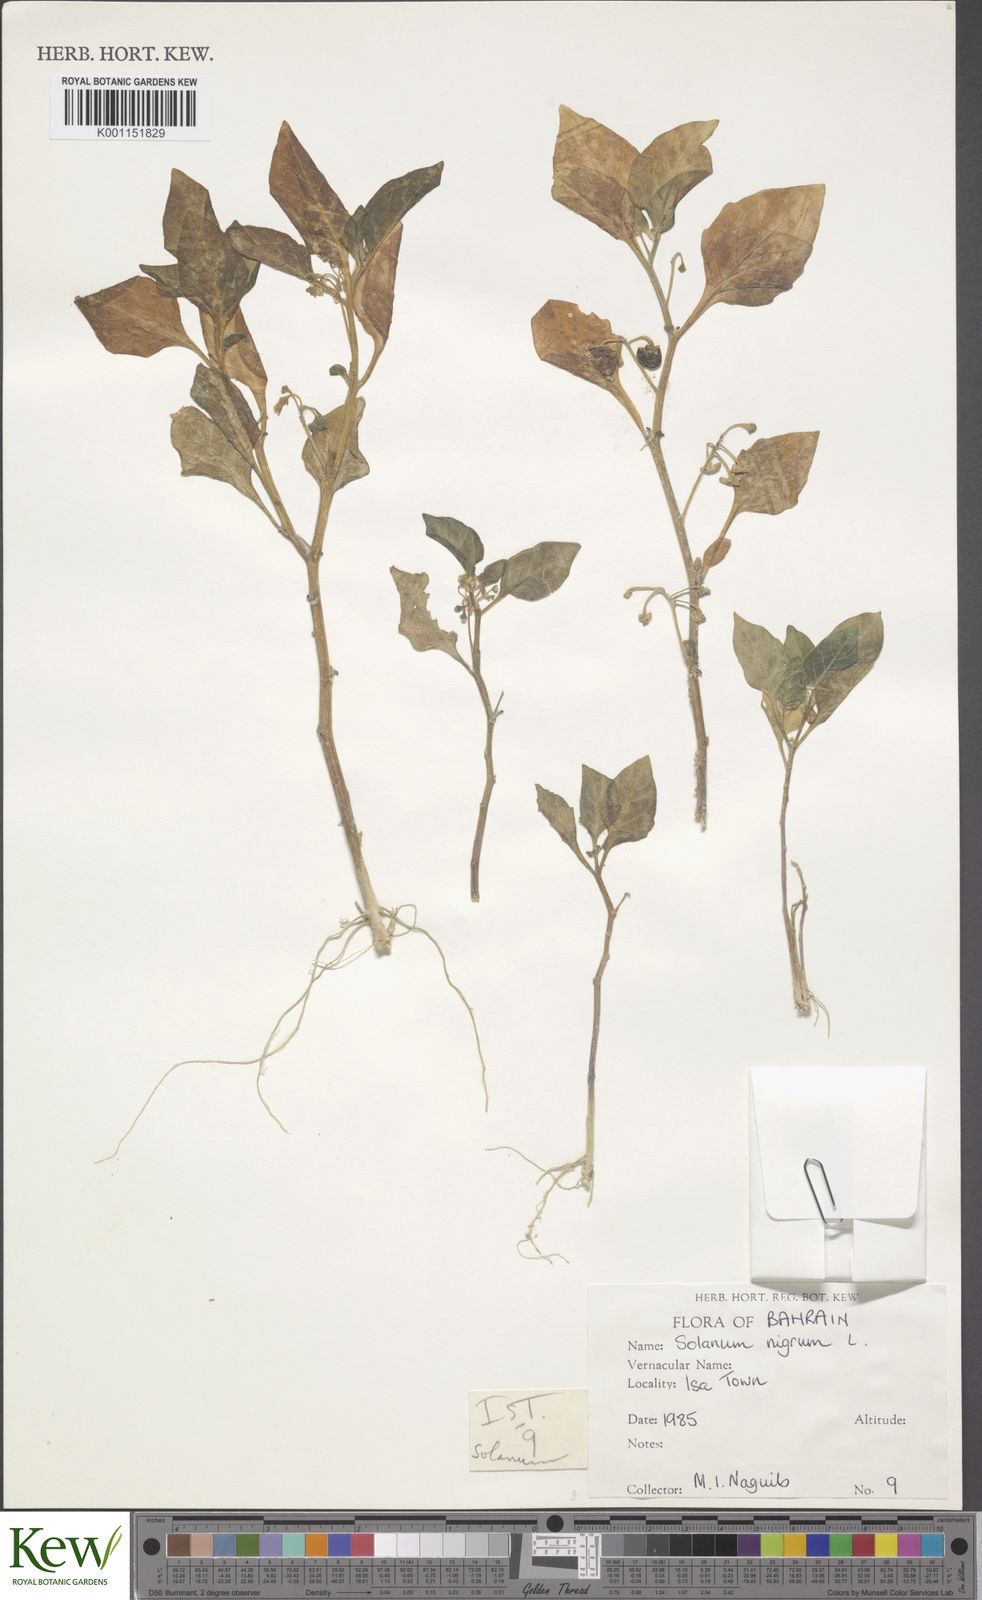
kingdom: Plantae
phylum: Tracheophyta
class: Magnoliopsida
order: Solanales
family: Solanaceae
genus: Solanum
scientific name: Solanum nigrum
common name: Black nightshade
